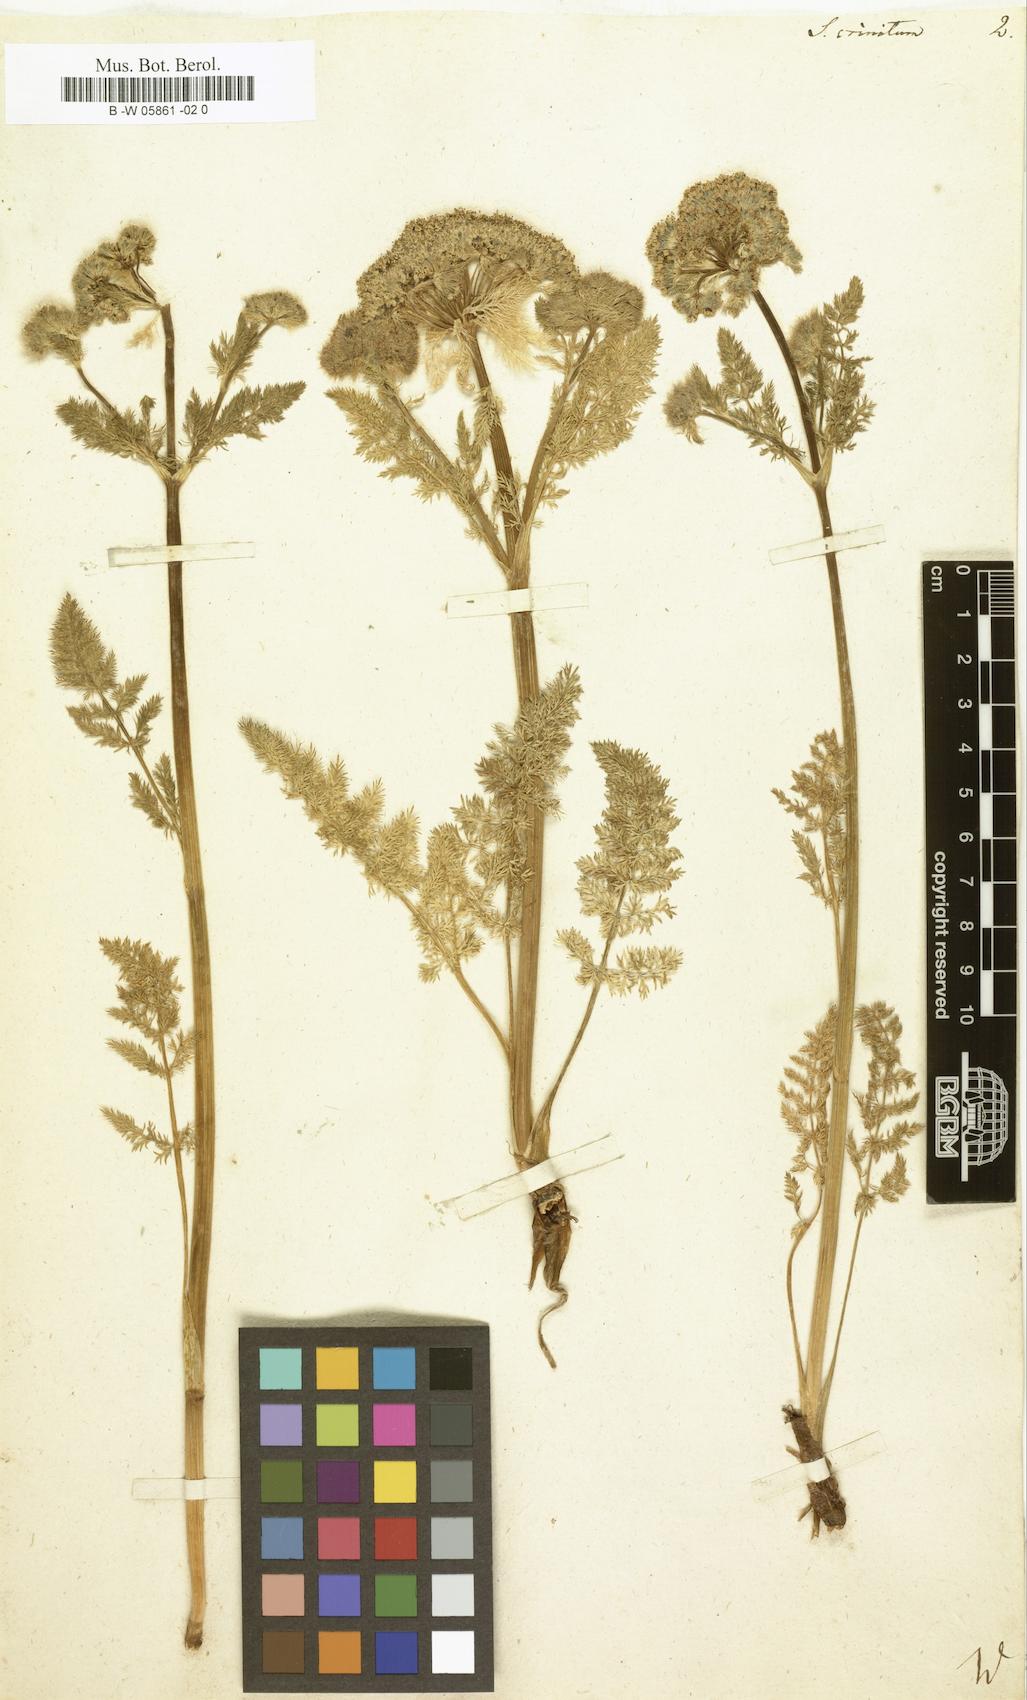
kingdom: Plantae
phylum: Tracheophyta
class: Magnoliopsida
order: Apiales
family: Apiaceae
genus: Schulzia
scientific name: Schulzia crinita
